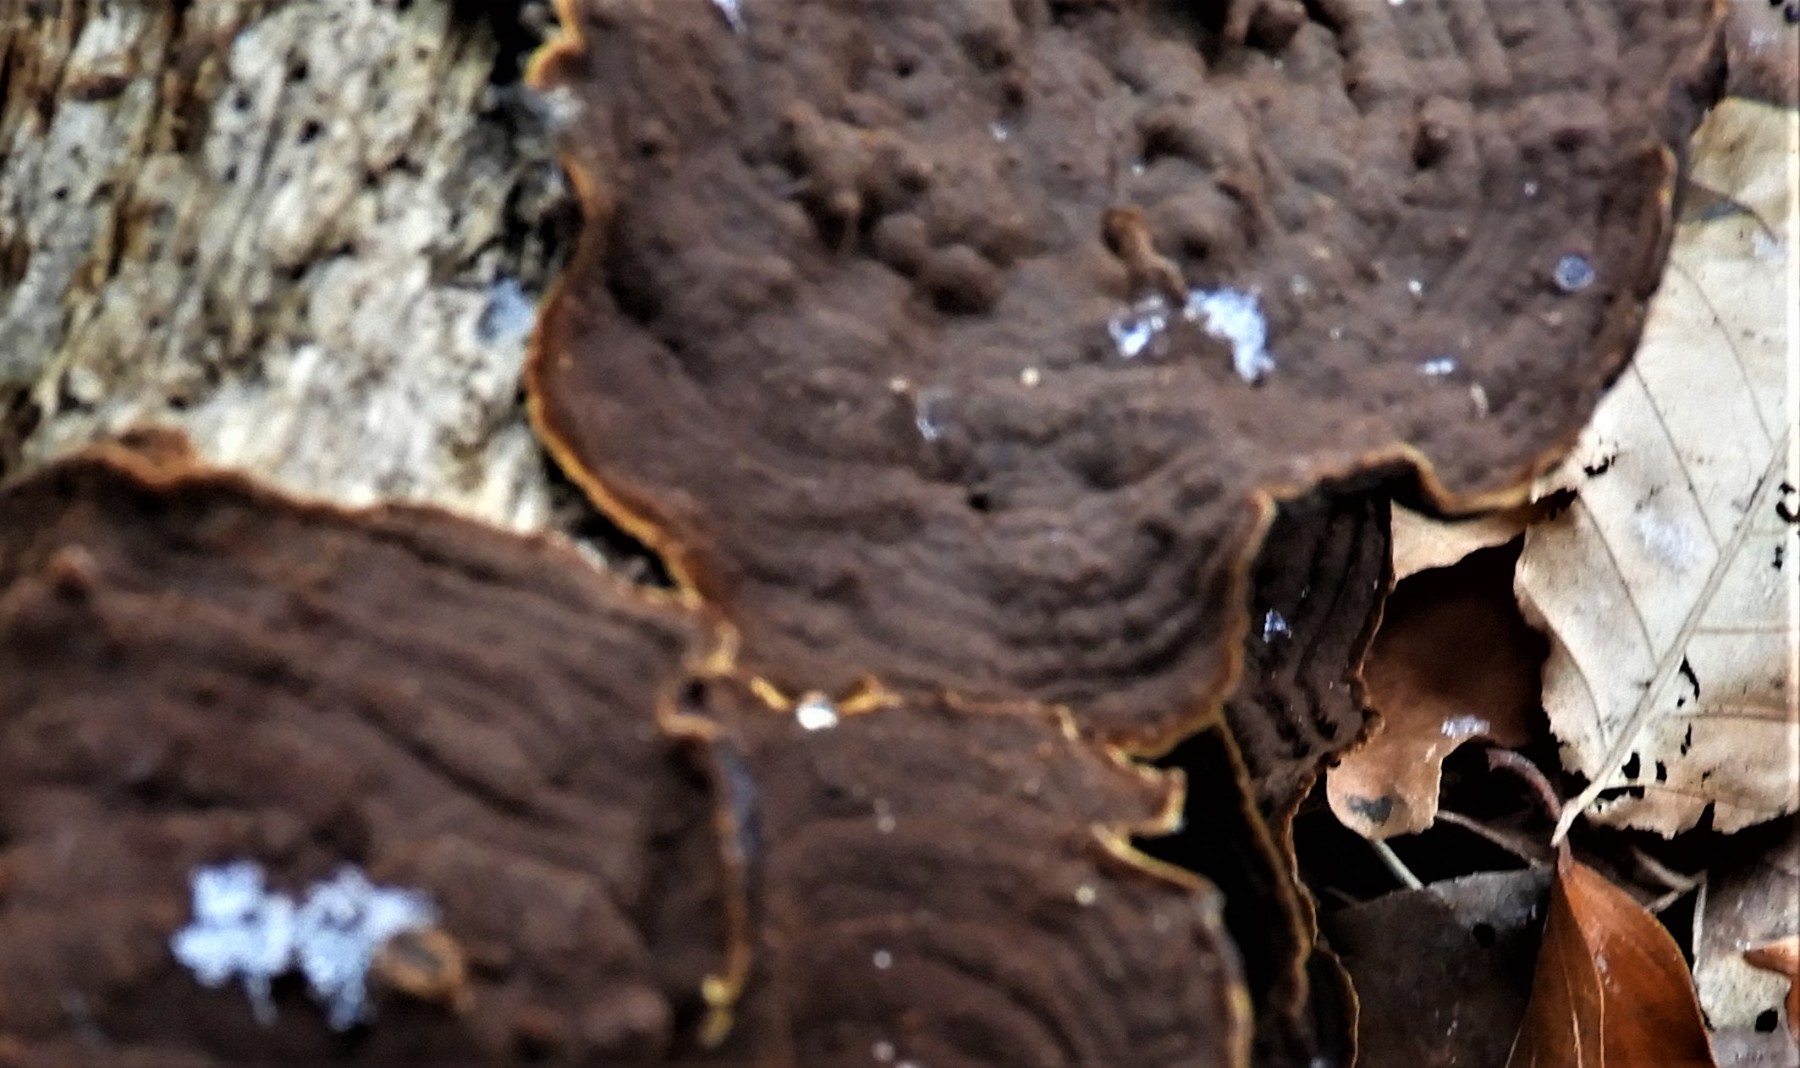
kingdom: Fungi
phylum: Basidiomycota
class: Agaricomycetes
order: Hymenochaetales
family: Hymenochaetaceae
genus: Hymenochaete
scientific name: Hymenochaete rubiginosa
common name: stiv ruslædersvamp
